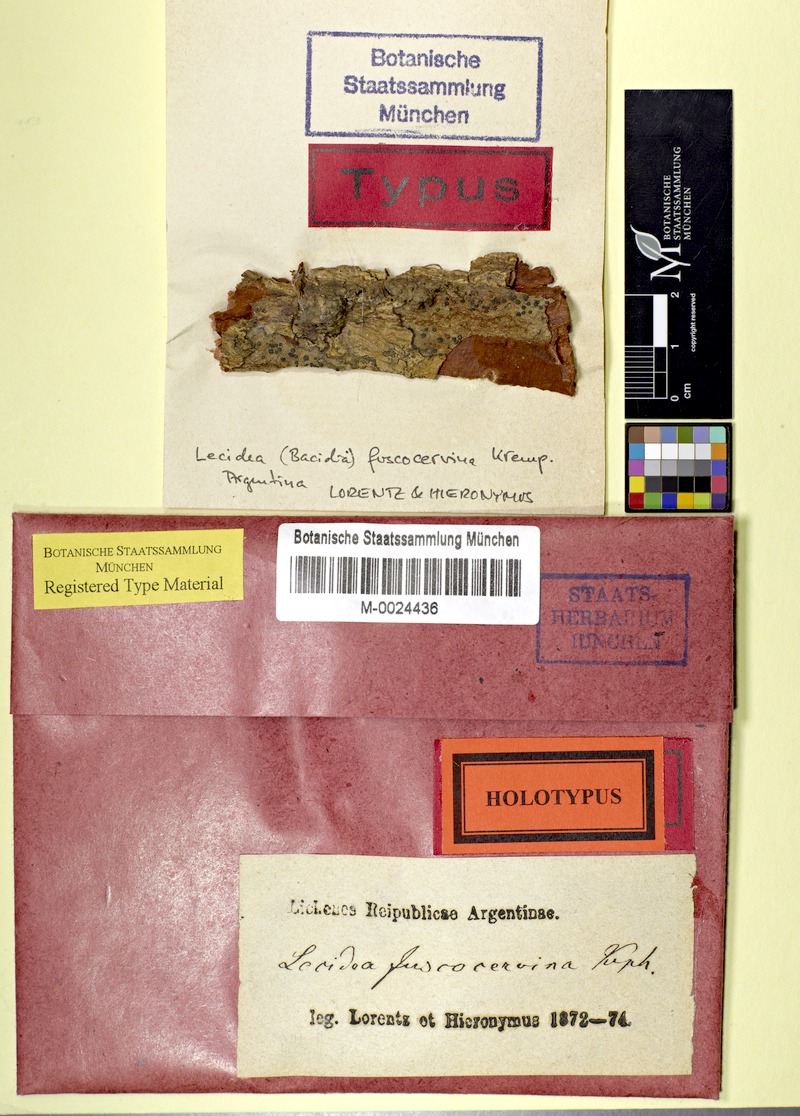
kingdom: Fungi
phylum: Ascomycota
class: Lecanoromycetes
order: Lecanorales
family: Ramalinaceae
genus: Bacidia
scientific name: Bacidia
